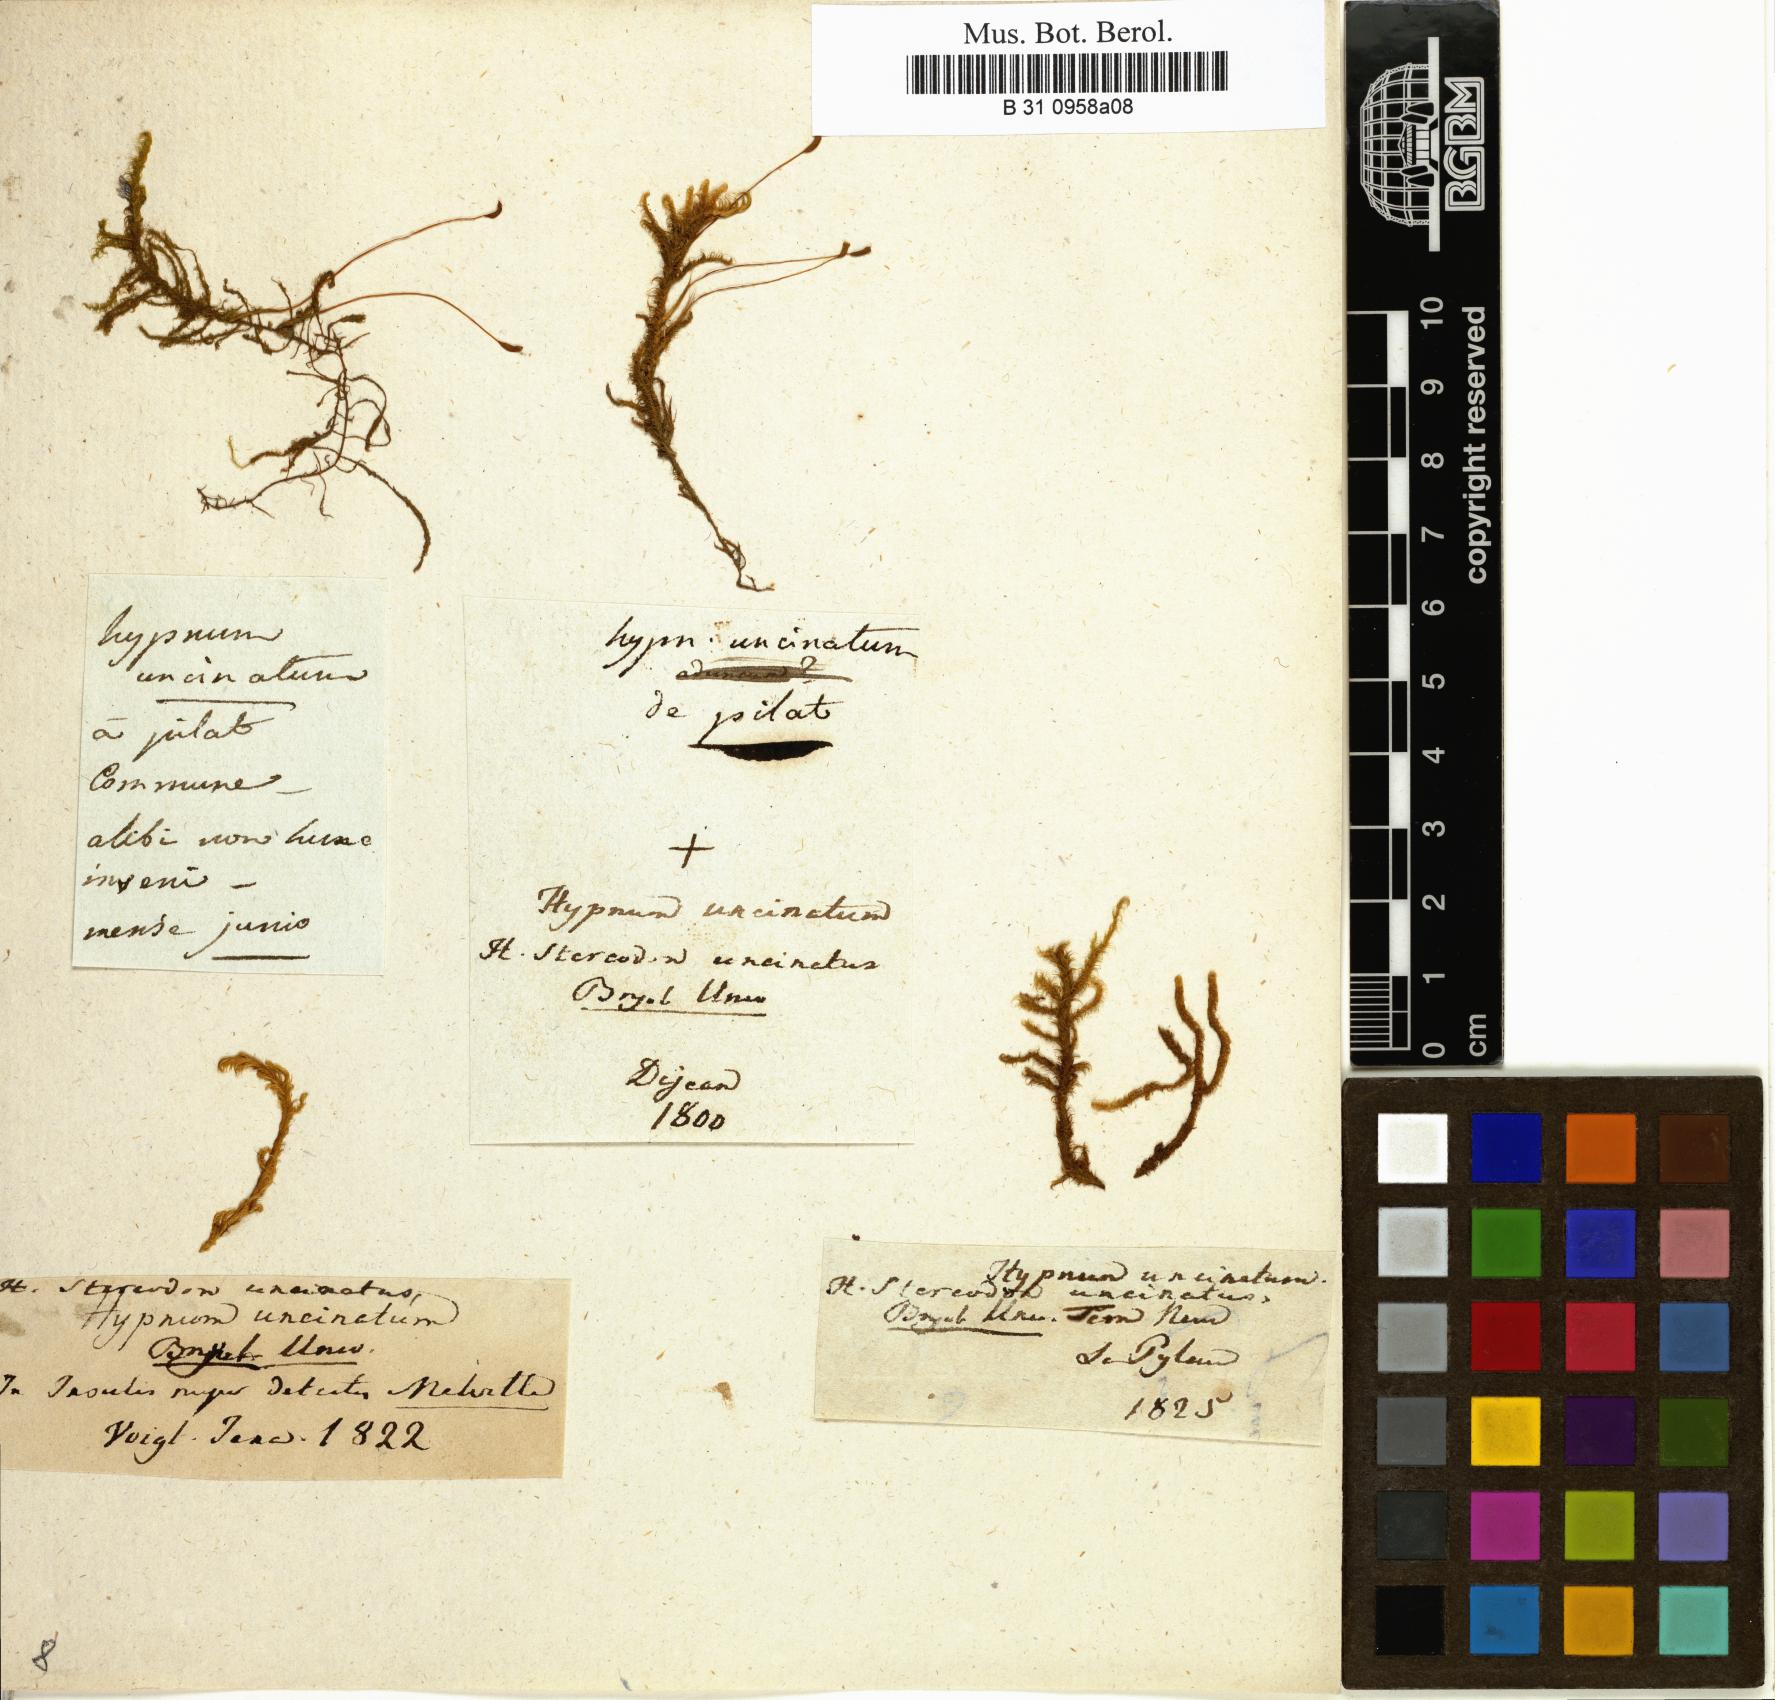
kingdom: Plantae
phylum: Bryophyta
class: Bryopsida
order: Hypnales
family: Scorpidiaceae
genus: Sanionia
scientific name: Sanionia uncinata
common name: Sickle moss
